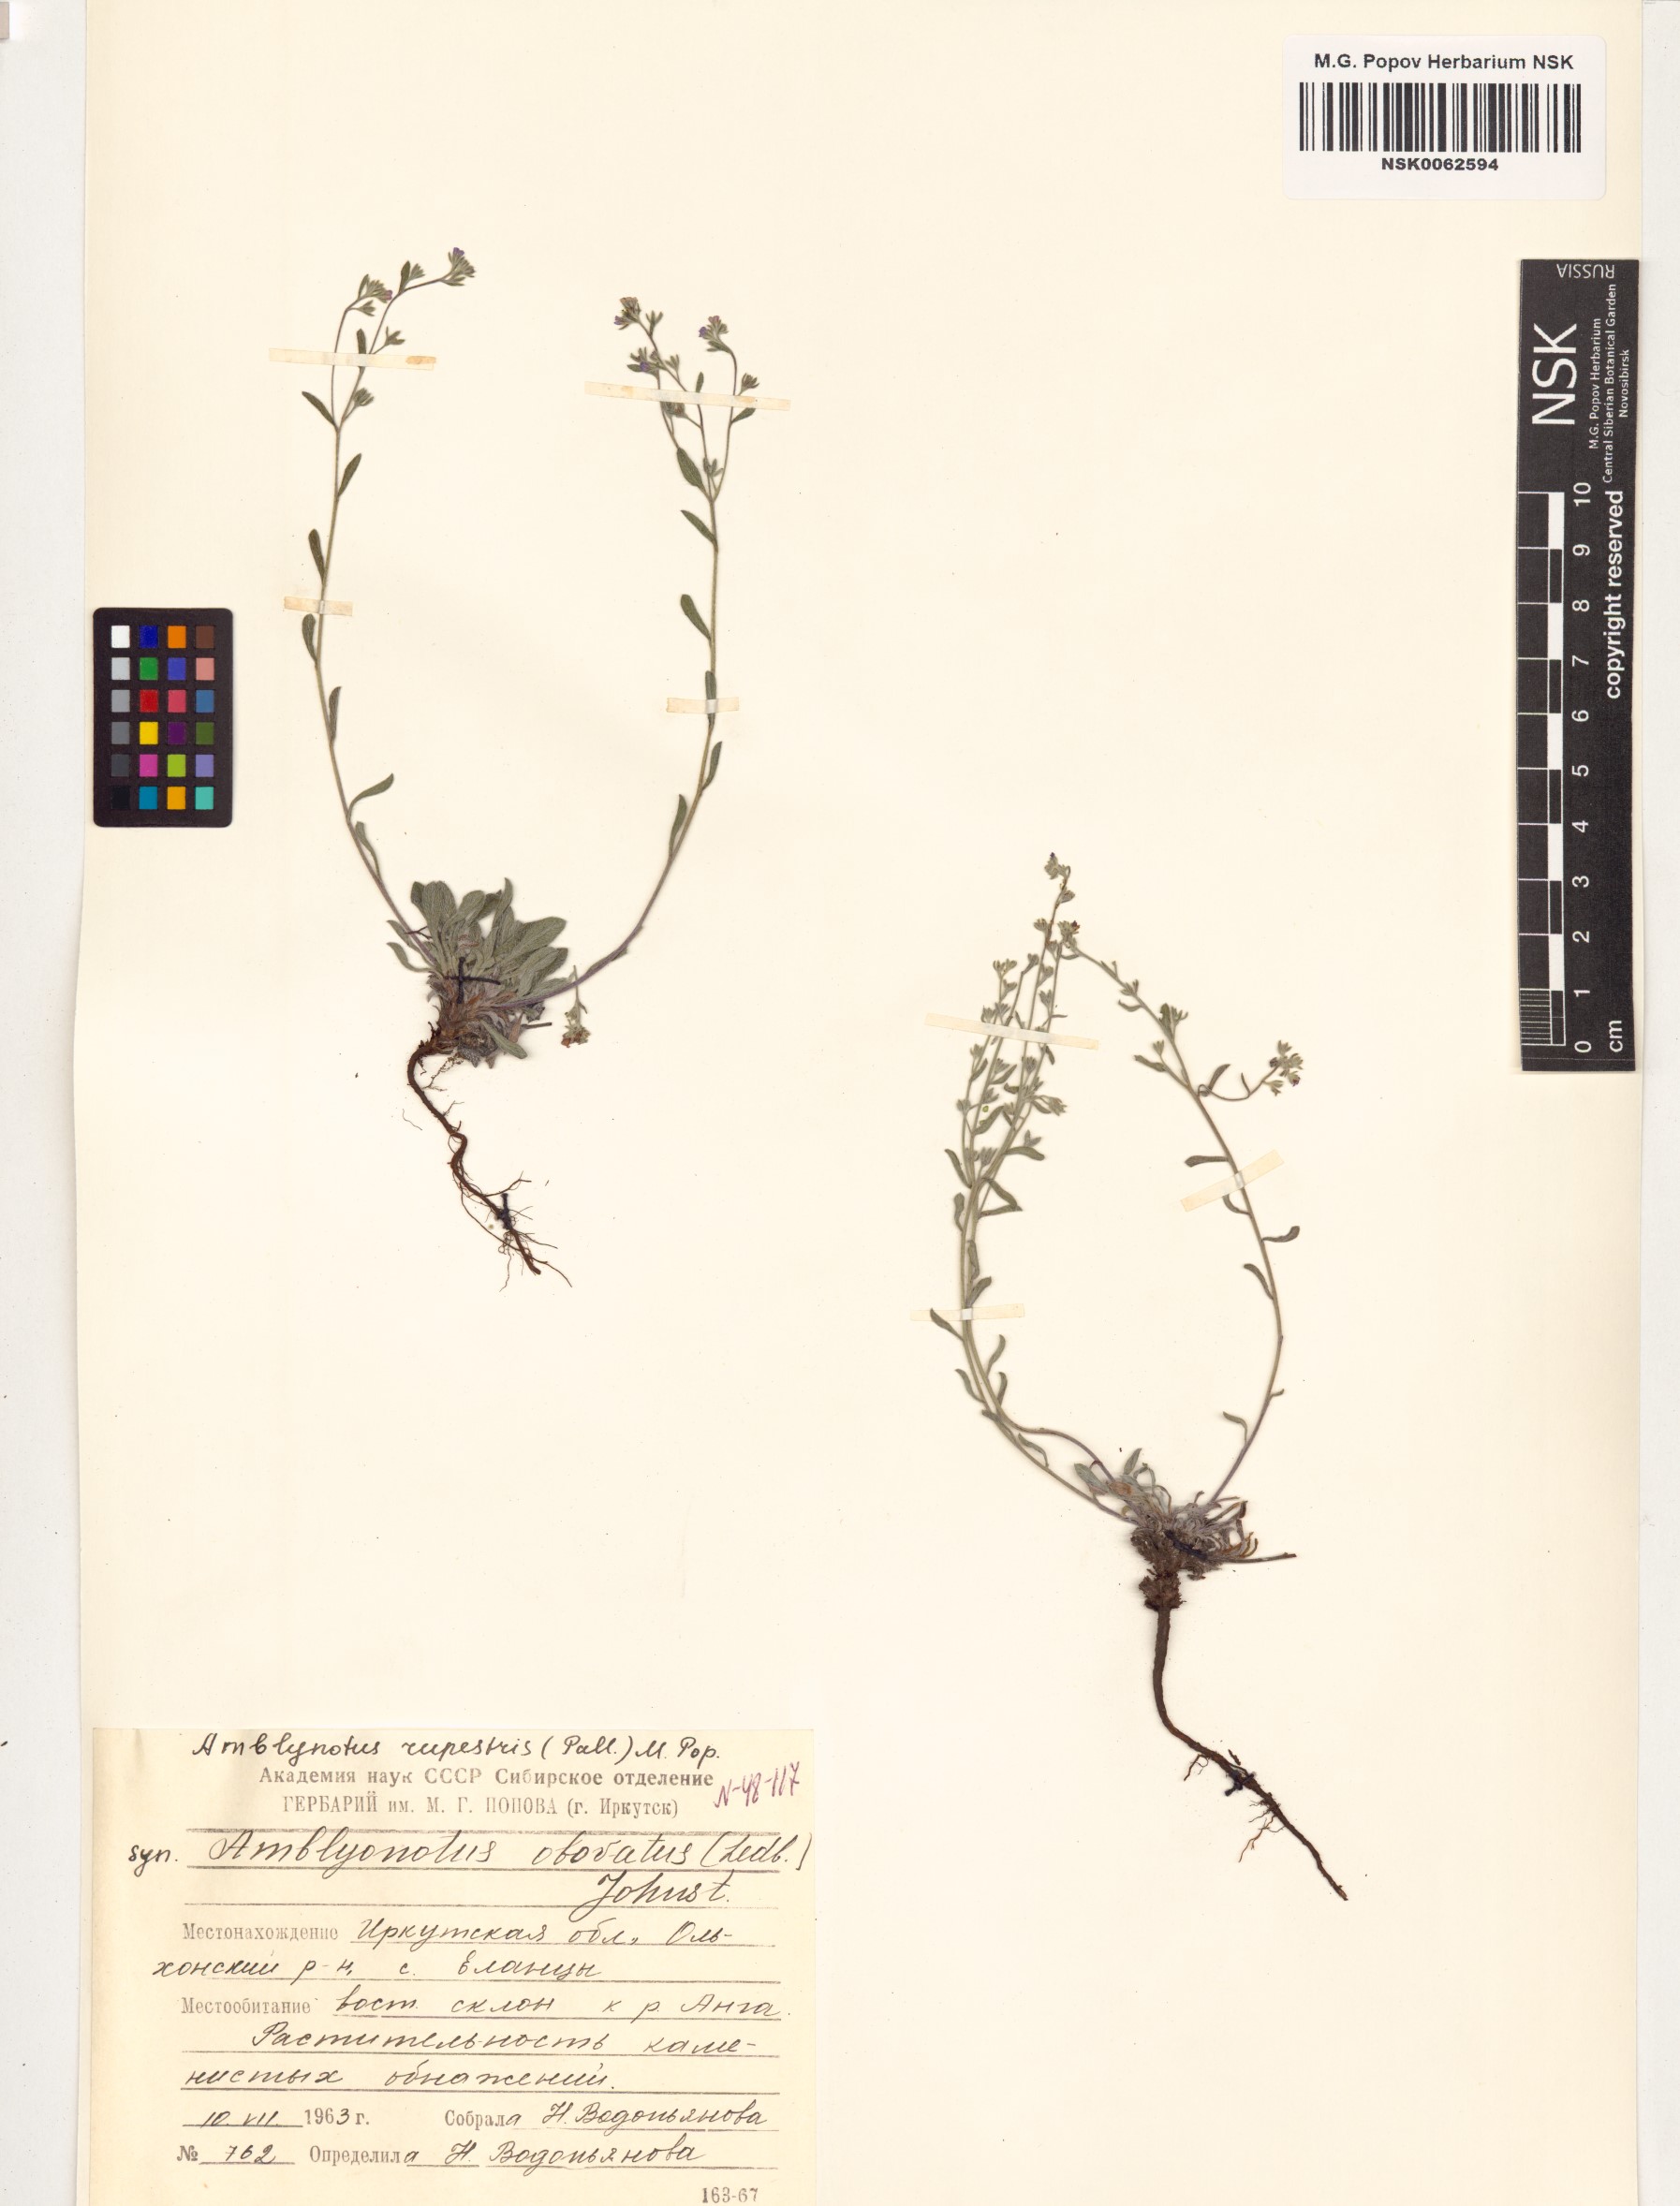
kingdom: Plantae
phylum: Tracheophyta
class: Magnoliopsida
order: Boraginales
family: Boraginaceae
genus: Eritrichium
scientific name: Eritrichium rupestre
